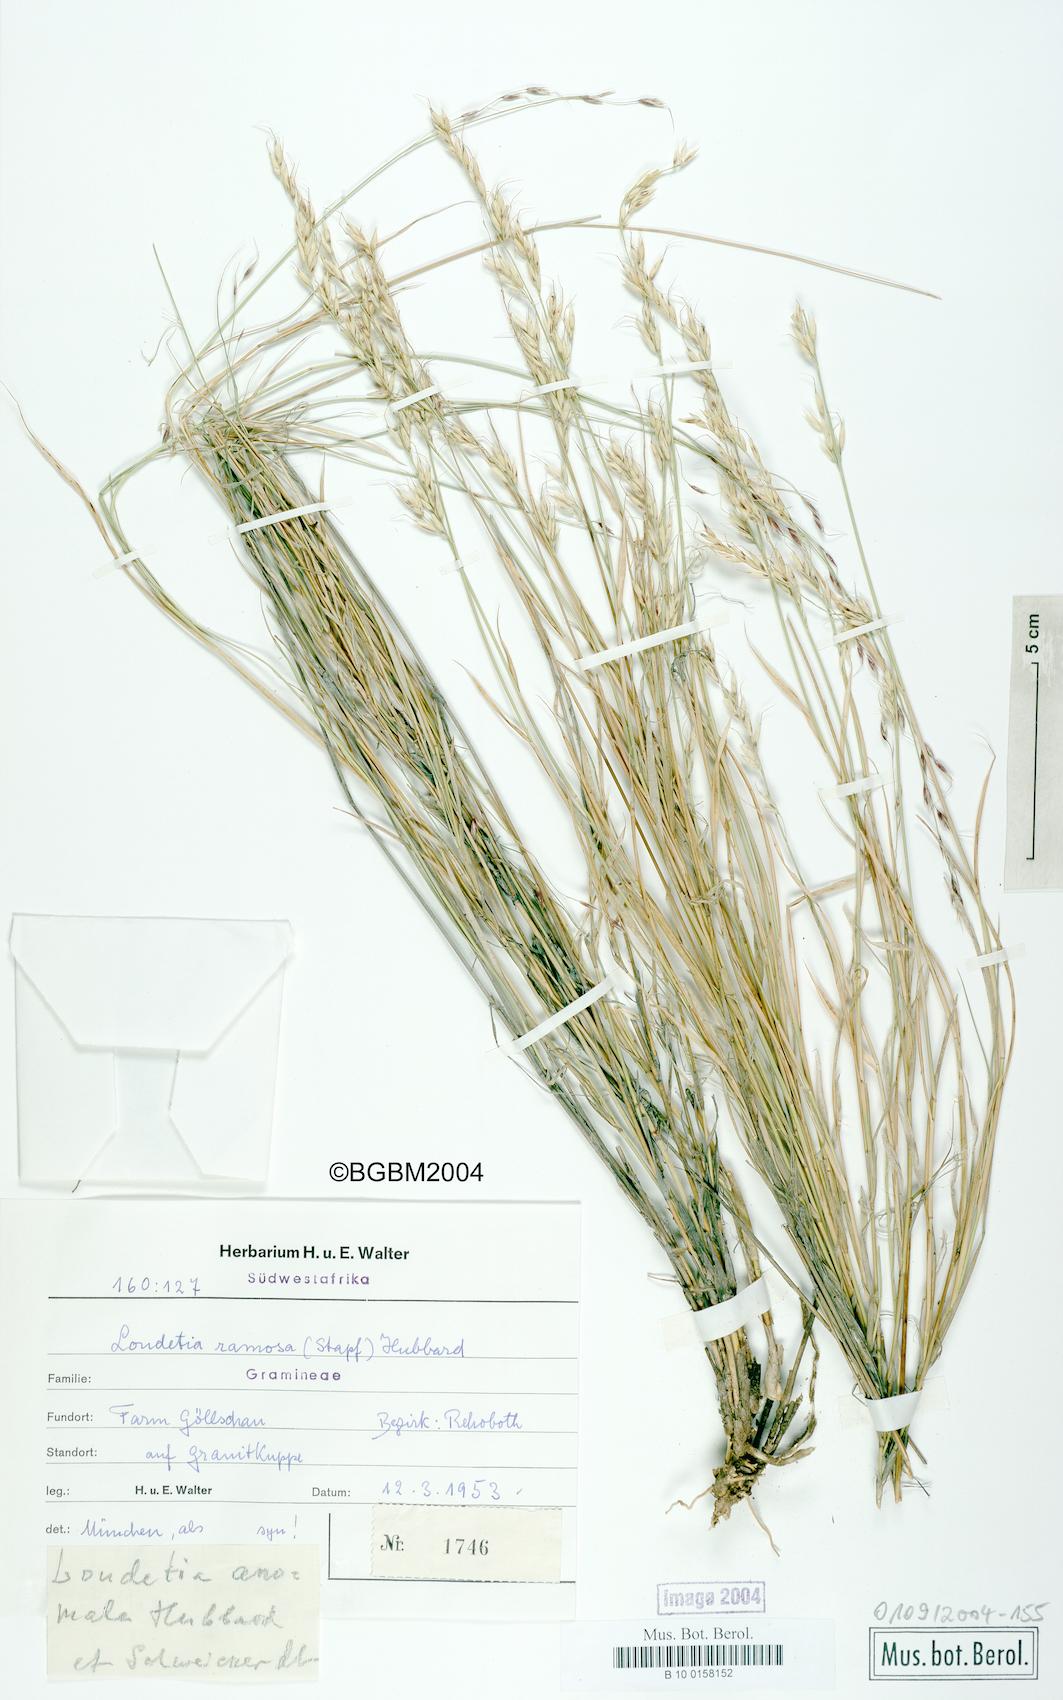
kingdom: Plantae
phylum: Tracheophyta
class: Liliopsida
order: Poales
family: Poaceae
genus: Danthoniopsis
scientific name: Danthoniopsis ramosa
